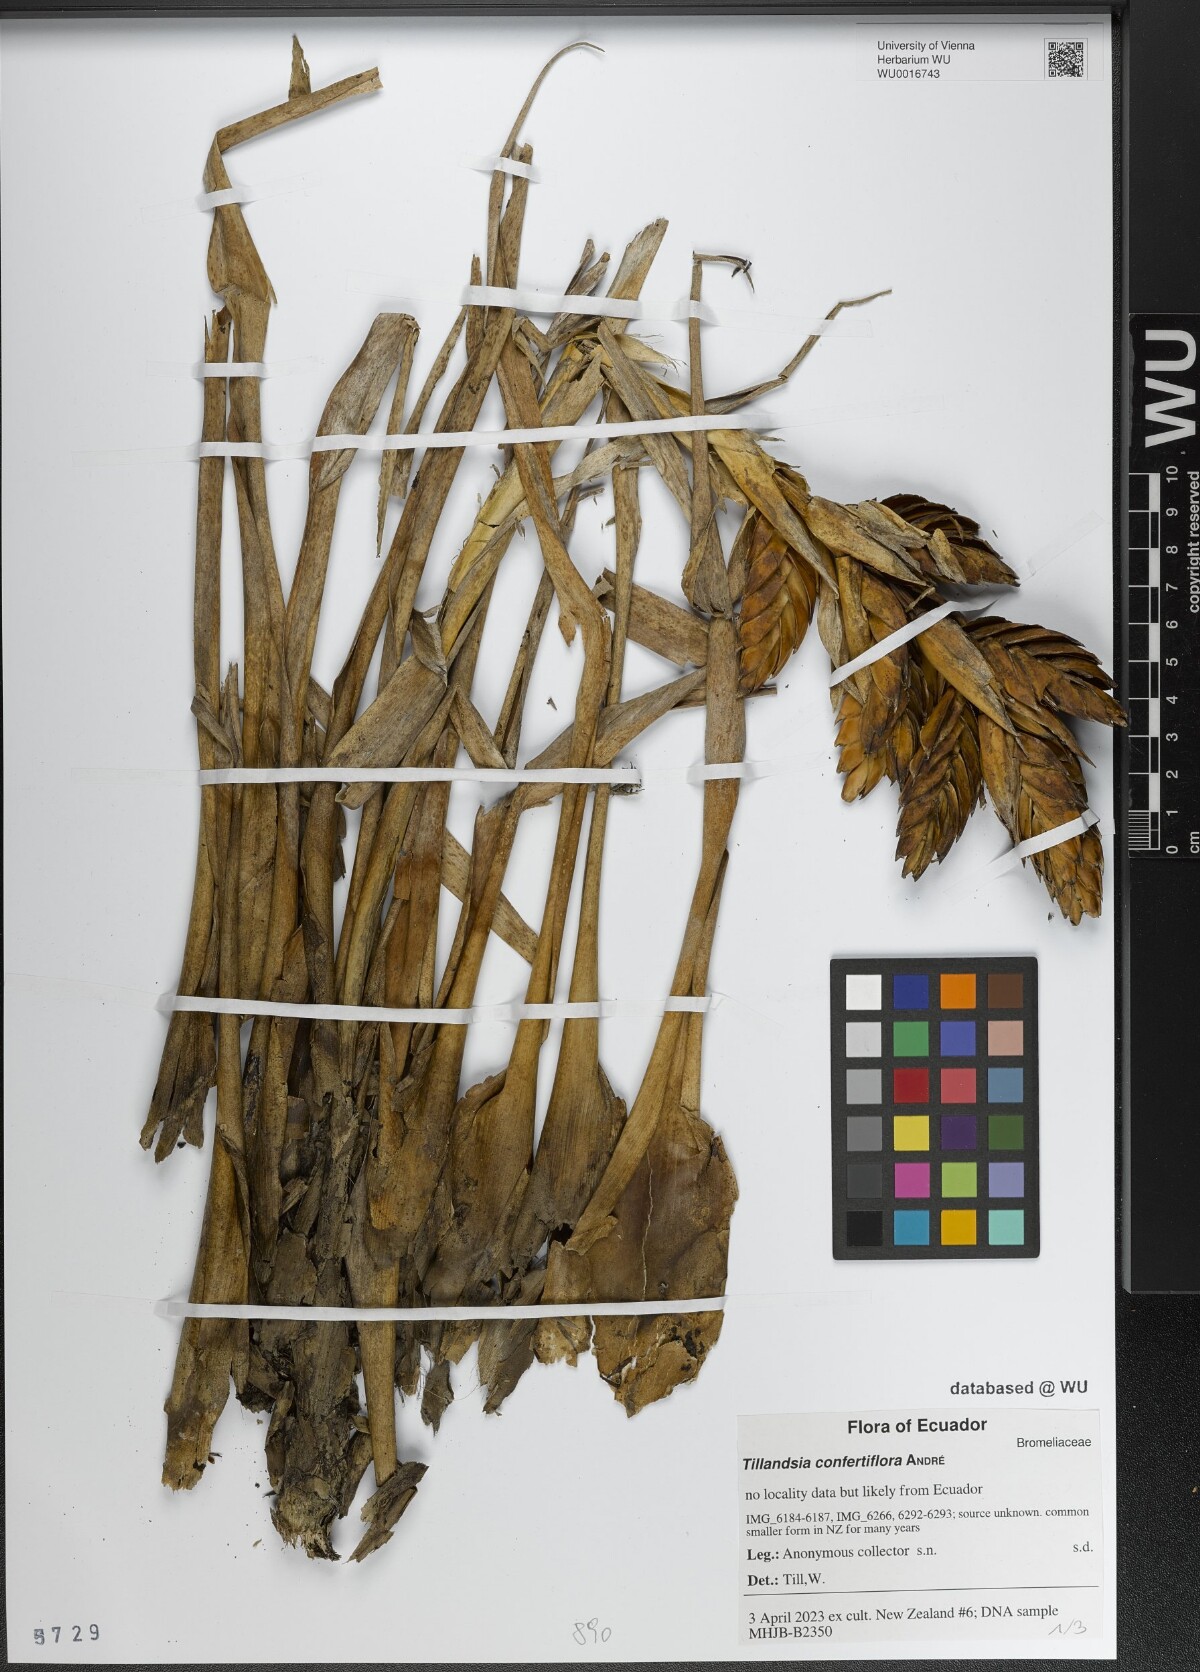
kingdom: Plantae
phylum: Tracheophyta
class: Liliopsida
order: Poales
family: Bromeliaceae
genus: Tillandsia
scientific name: Tillandsia confertiflora
